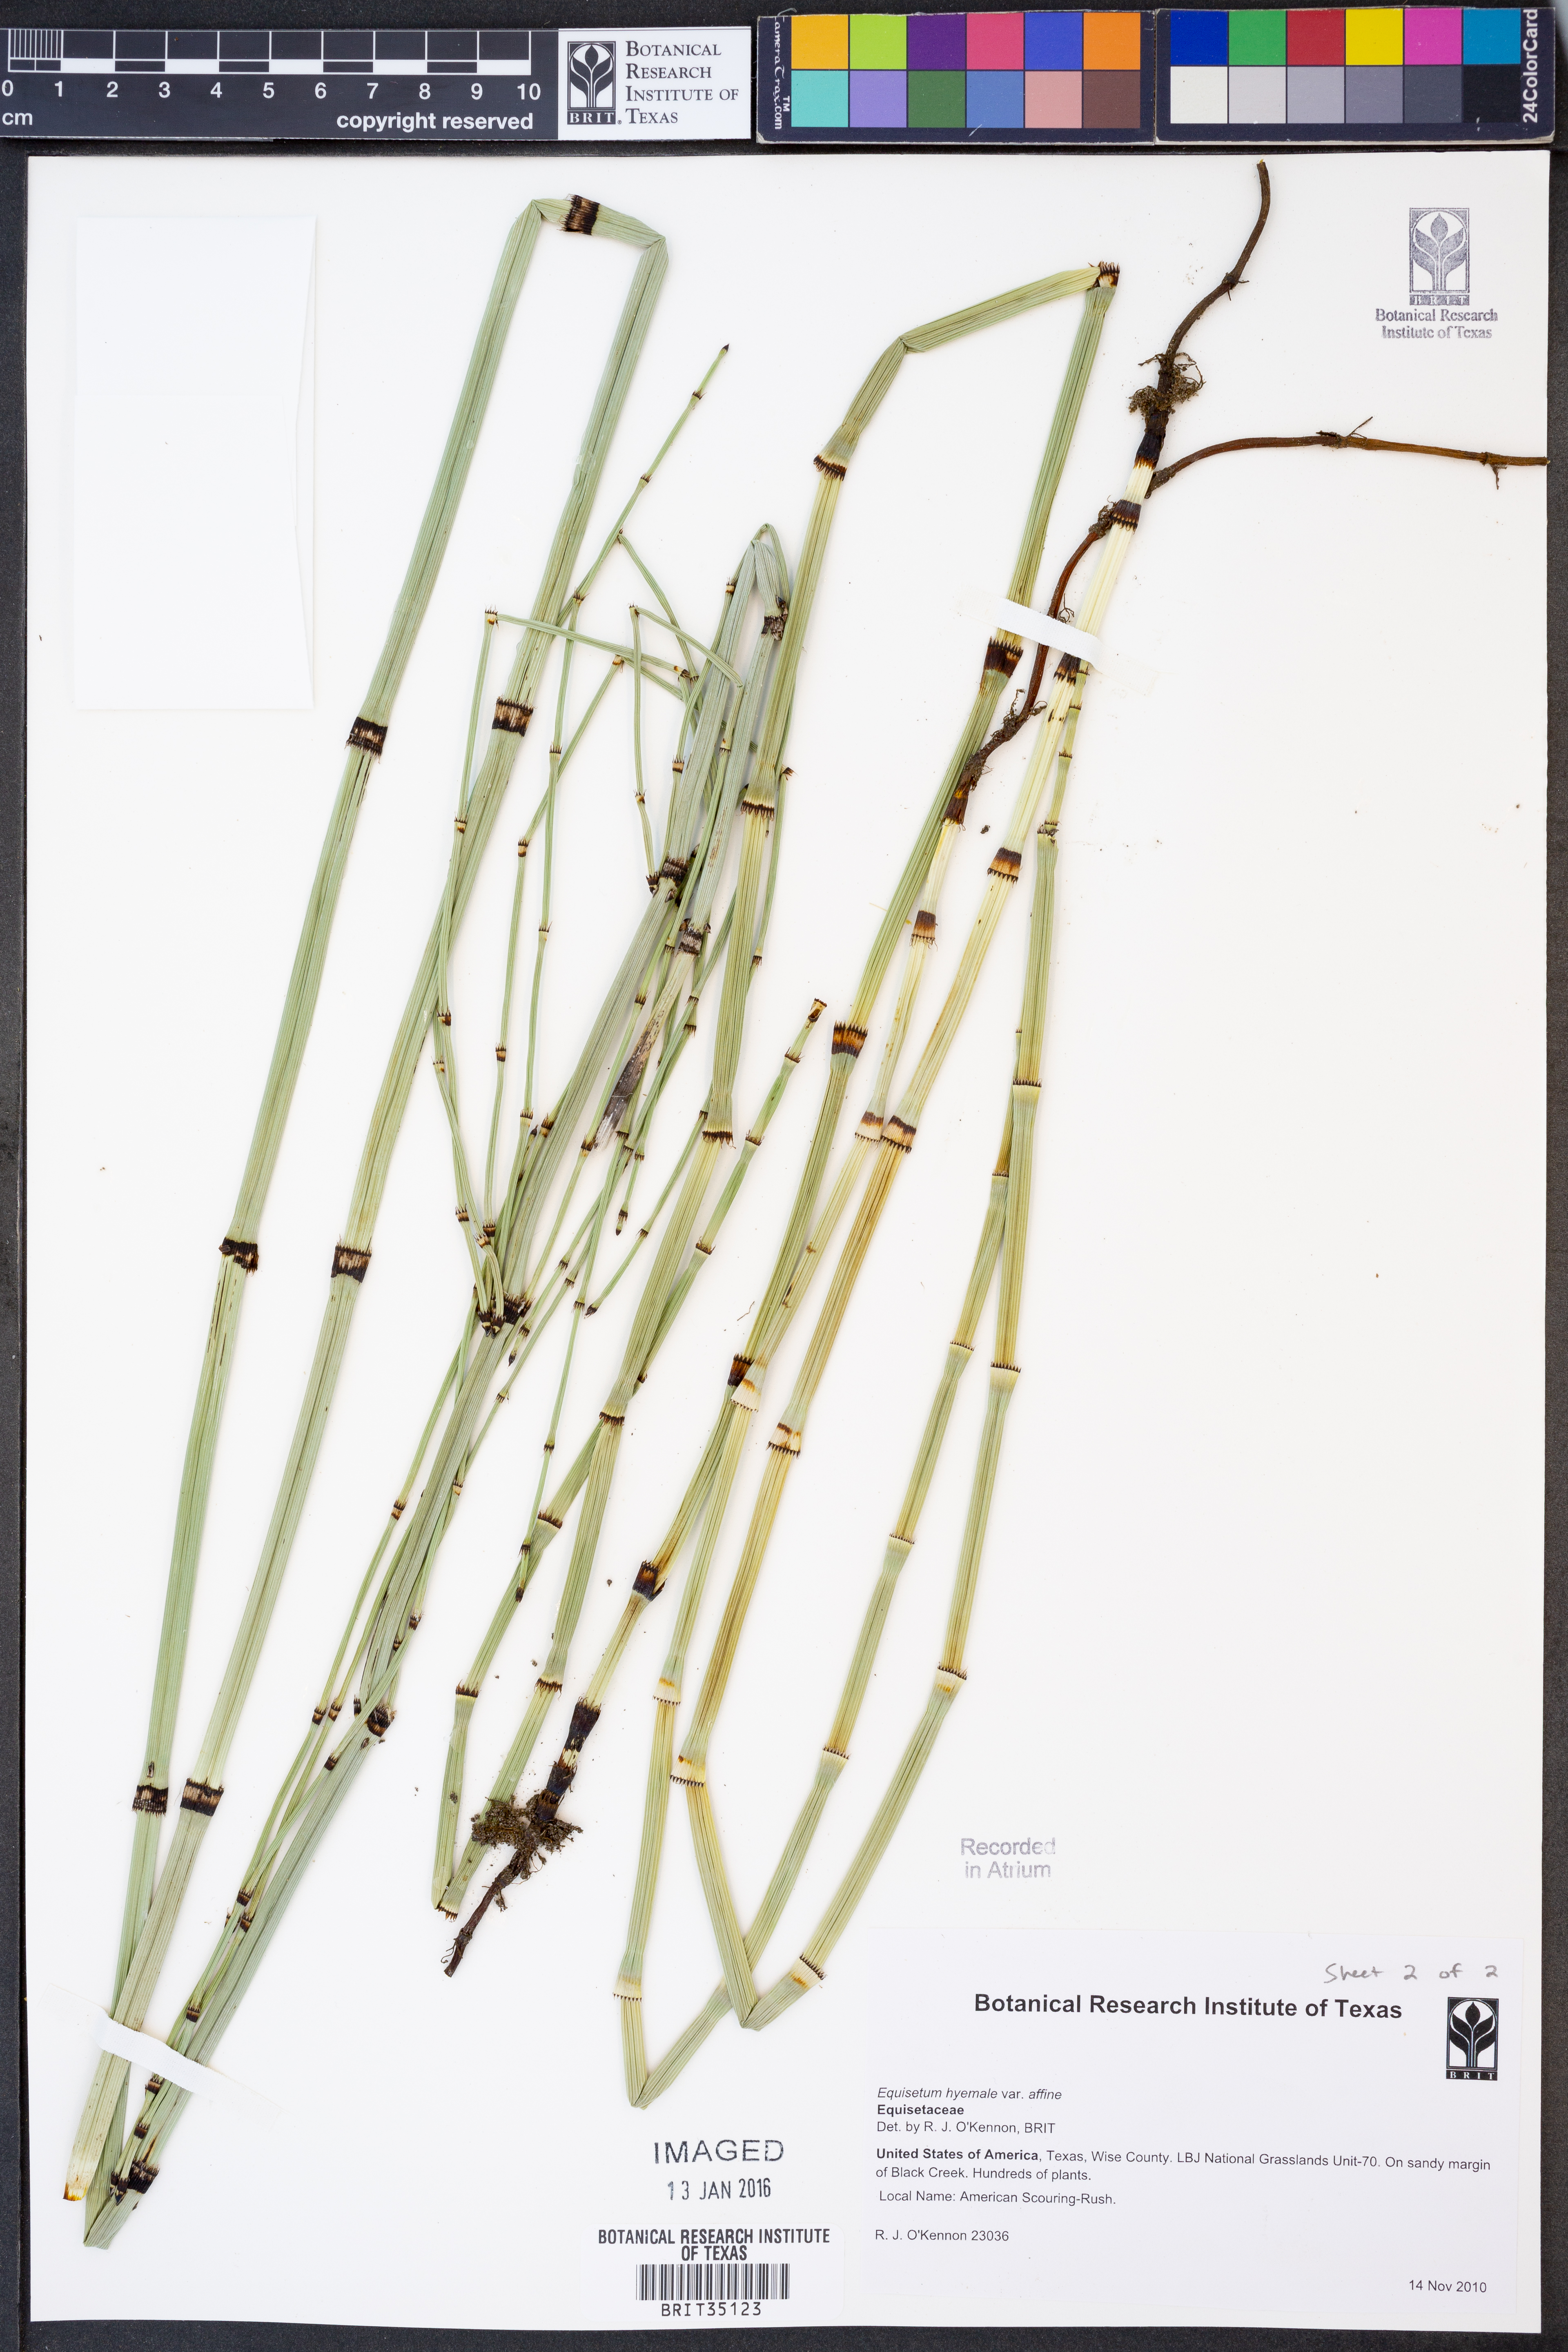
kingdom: Plantae
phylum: Tracheophyta
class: Polypodiopsida
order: Equisetales
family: Equisetaceae
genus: Equisetum
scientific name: Equisetum praealtum
